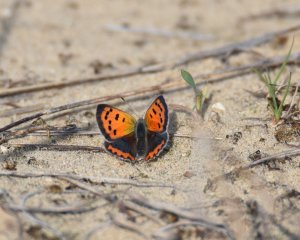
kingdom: Animalia
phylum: Arthropoda
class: Insecta
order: Lepidoptera
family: Lycaenidae
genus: Lycaena
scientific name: Lycaena phlaeas
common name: American Copper
